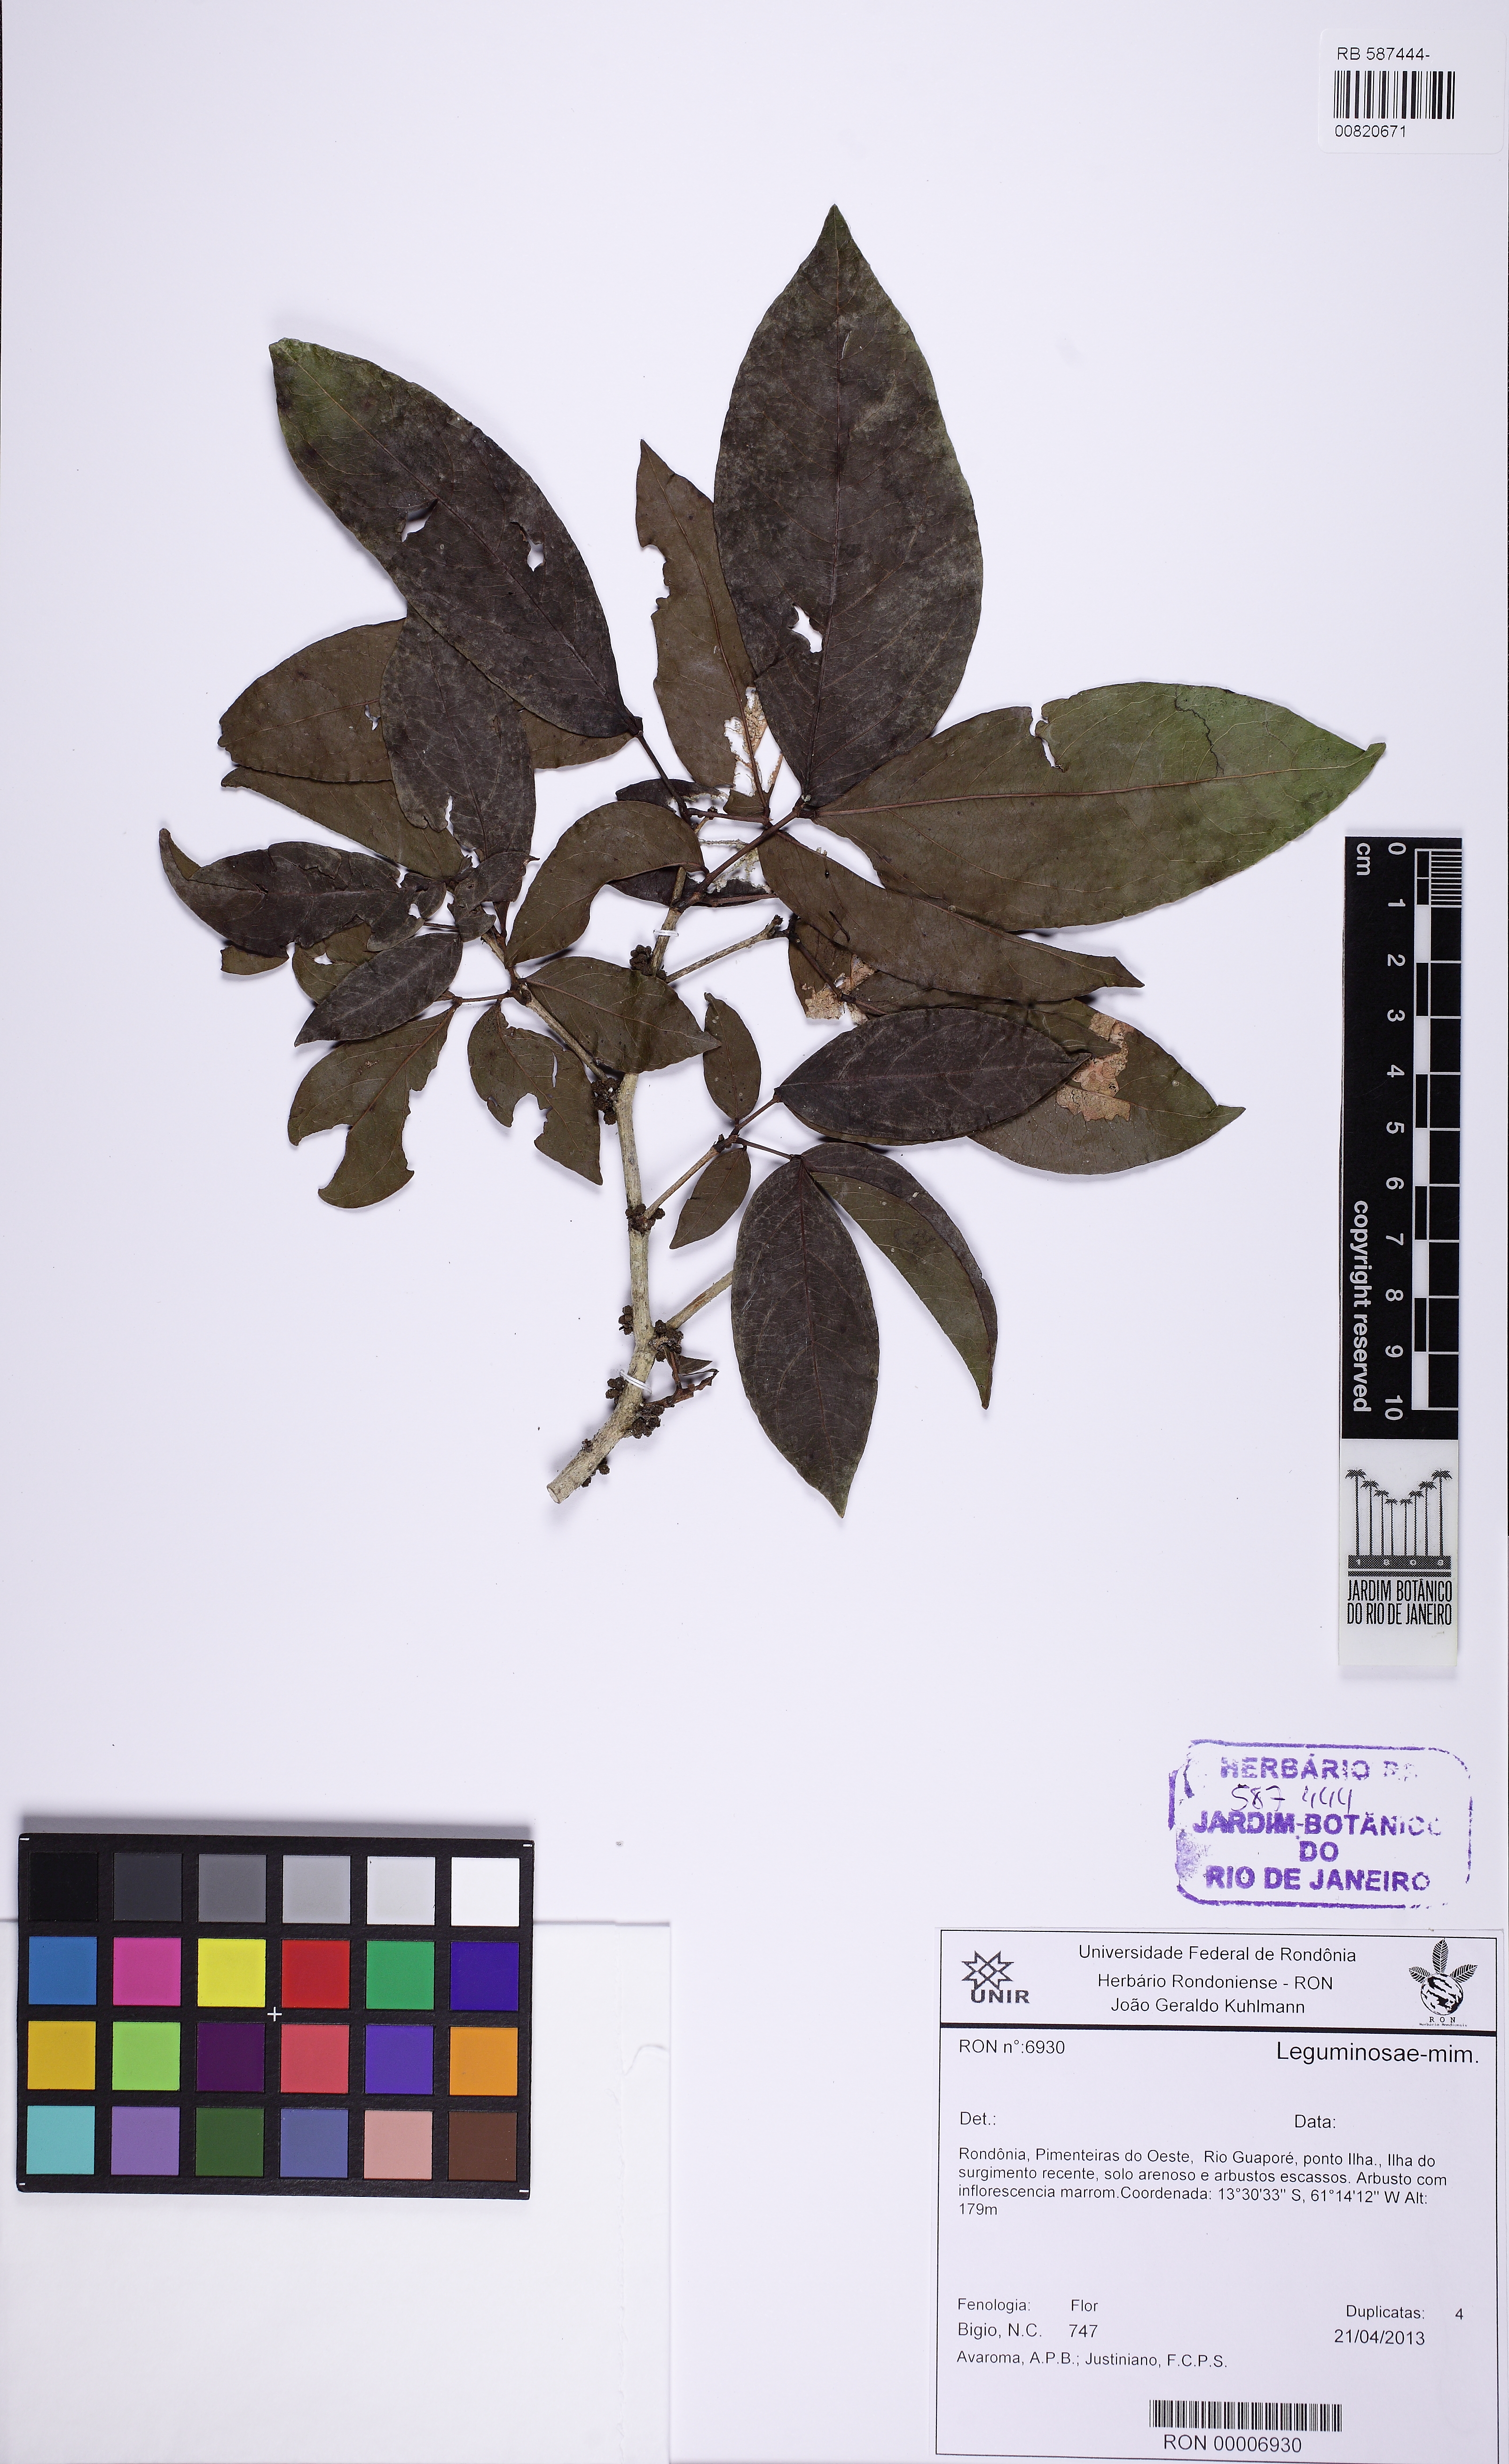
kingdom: Plantae
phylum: Tracheophyta
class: Magnoliopsida
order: Fabales
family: Fabaceae
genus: Zygia
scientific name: Zygia cataractae
